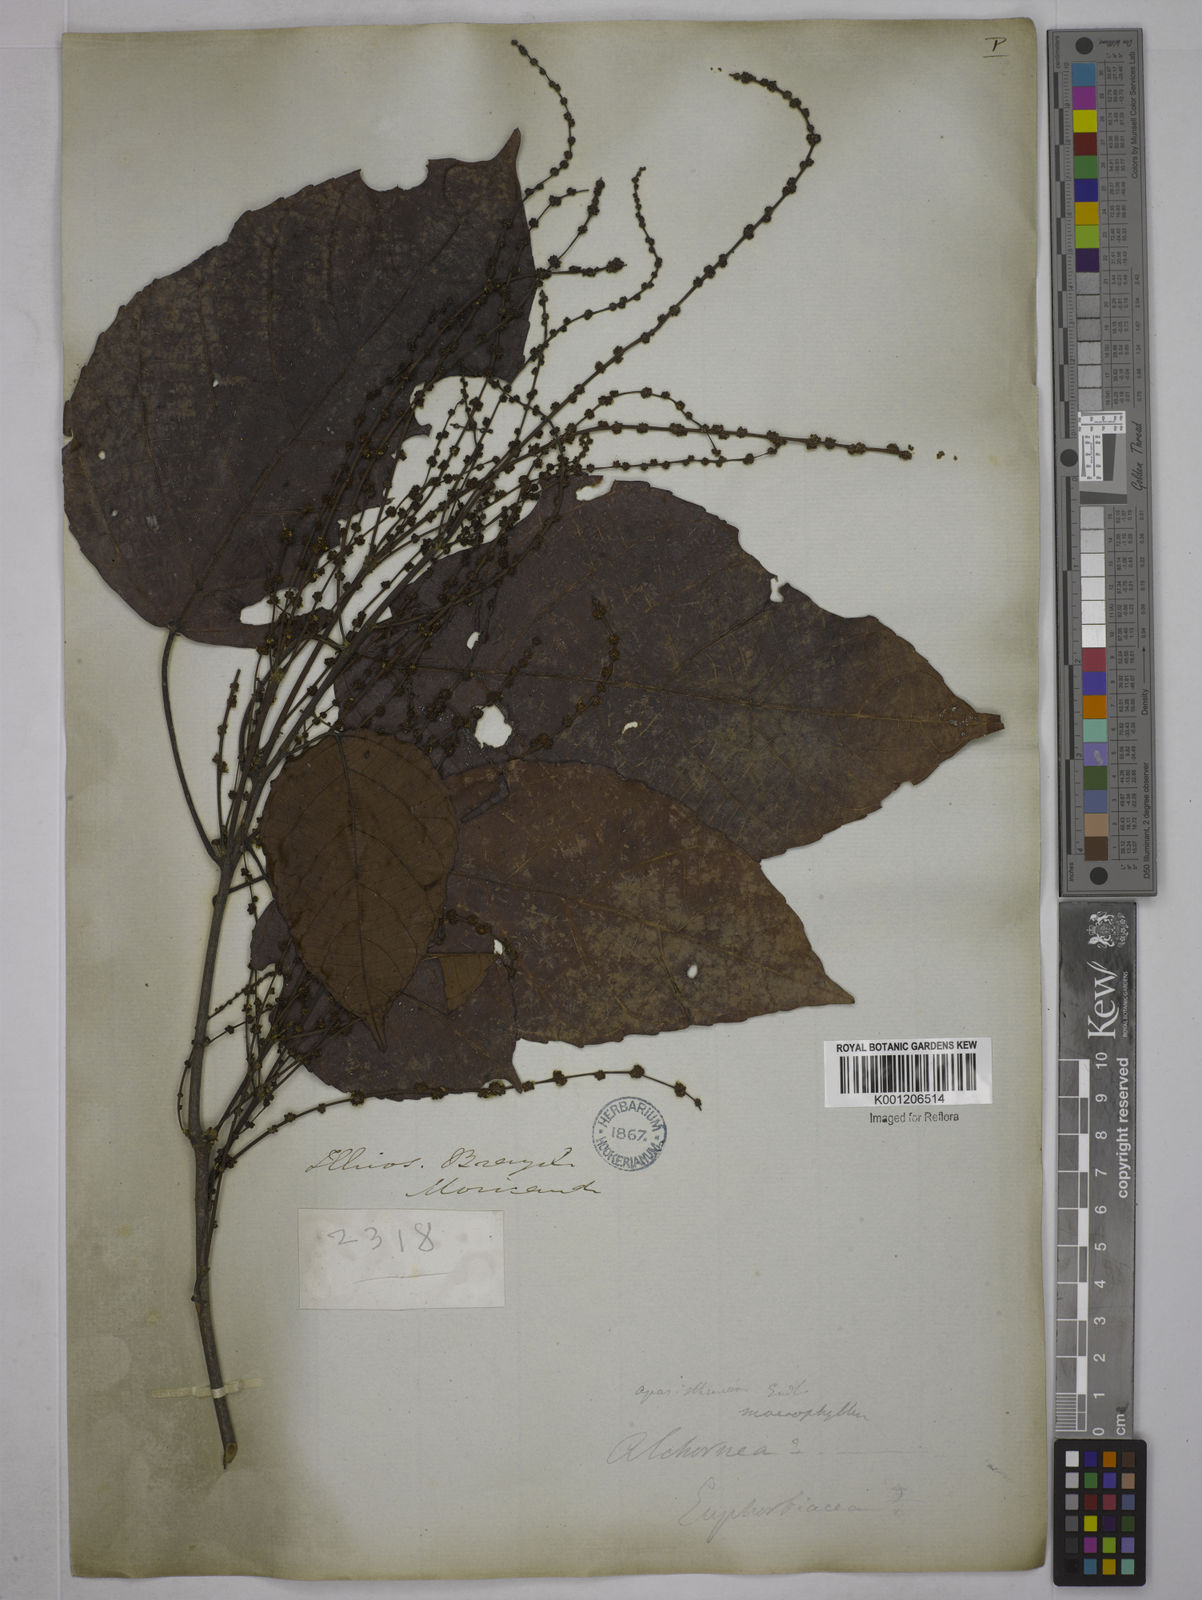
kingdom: Plantae
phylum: Tracheophyta
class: Magnoliopsida
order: Malpighiales
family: Euphorbiaceae
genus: Aparisthmium
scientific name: Aparisthmium cordatum
